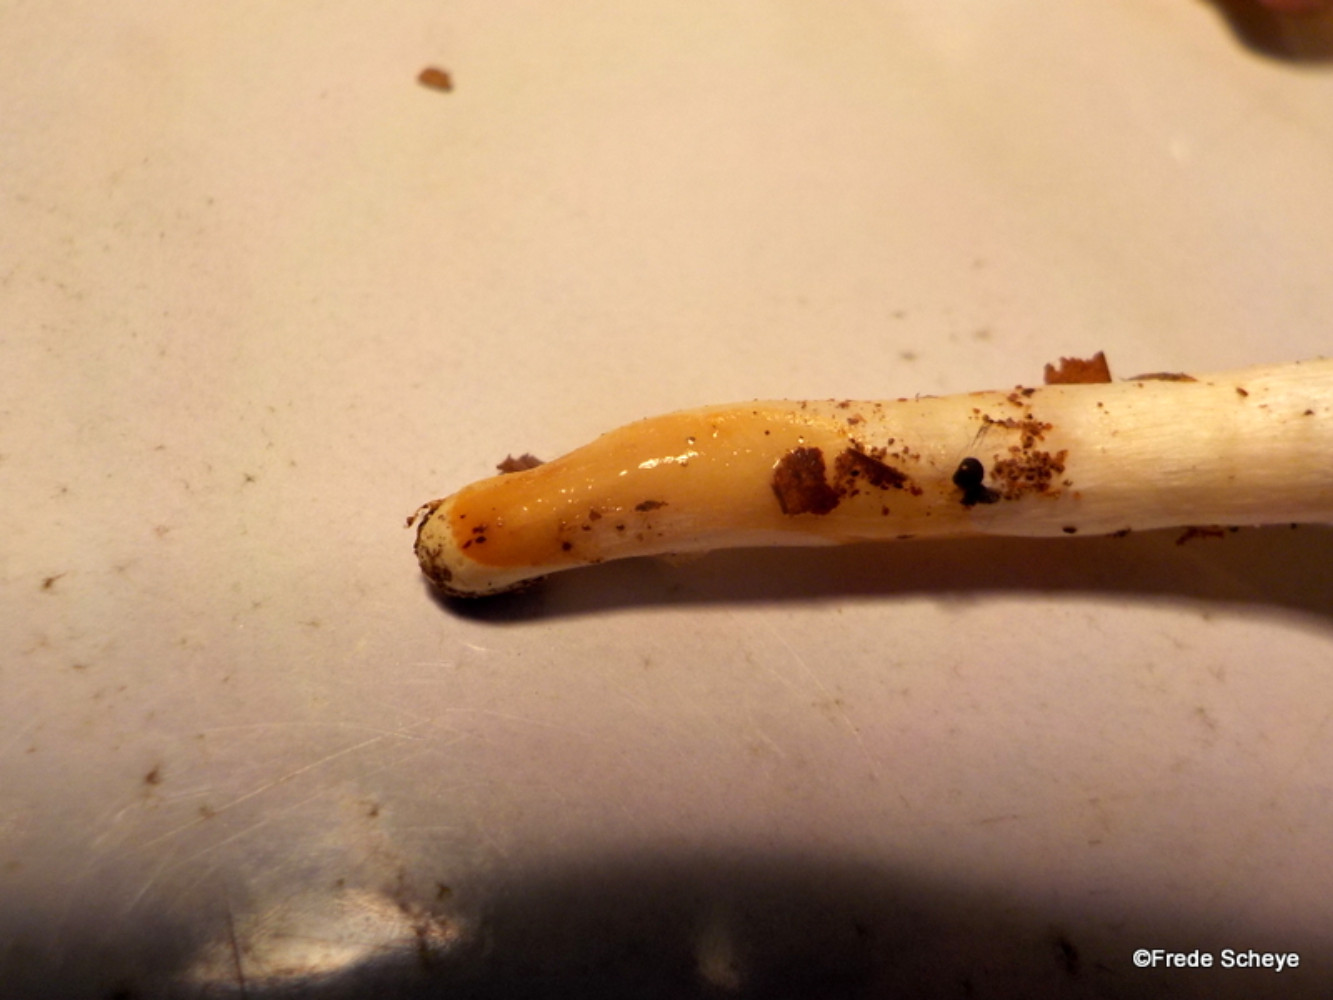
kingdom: Fungi
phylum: Basidiomycota
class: Agaricomycetes
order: Agaricales
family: Hygrophoraceae
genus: Hygrophorus
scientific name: Hygrophorus eburneus
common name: elfenbens-sneglehat
